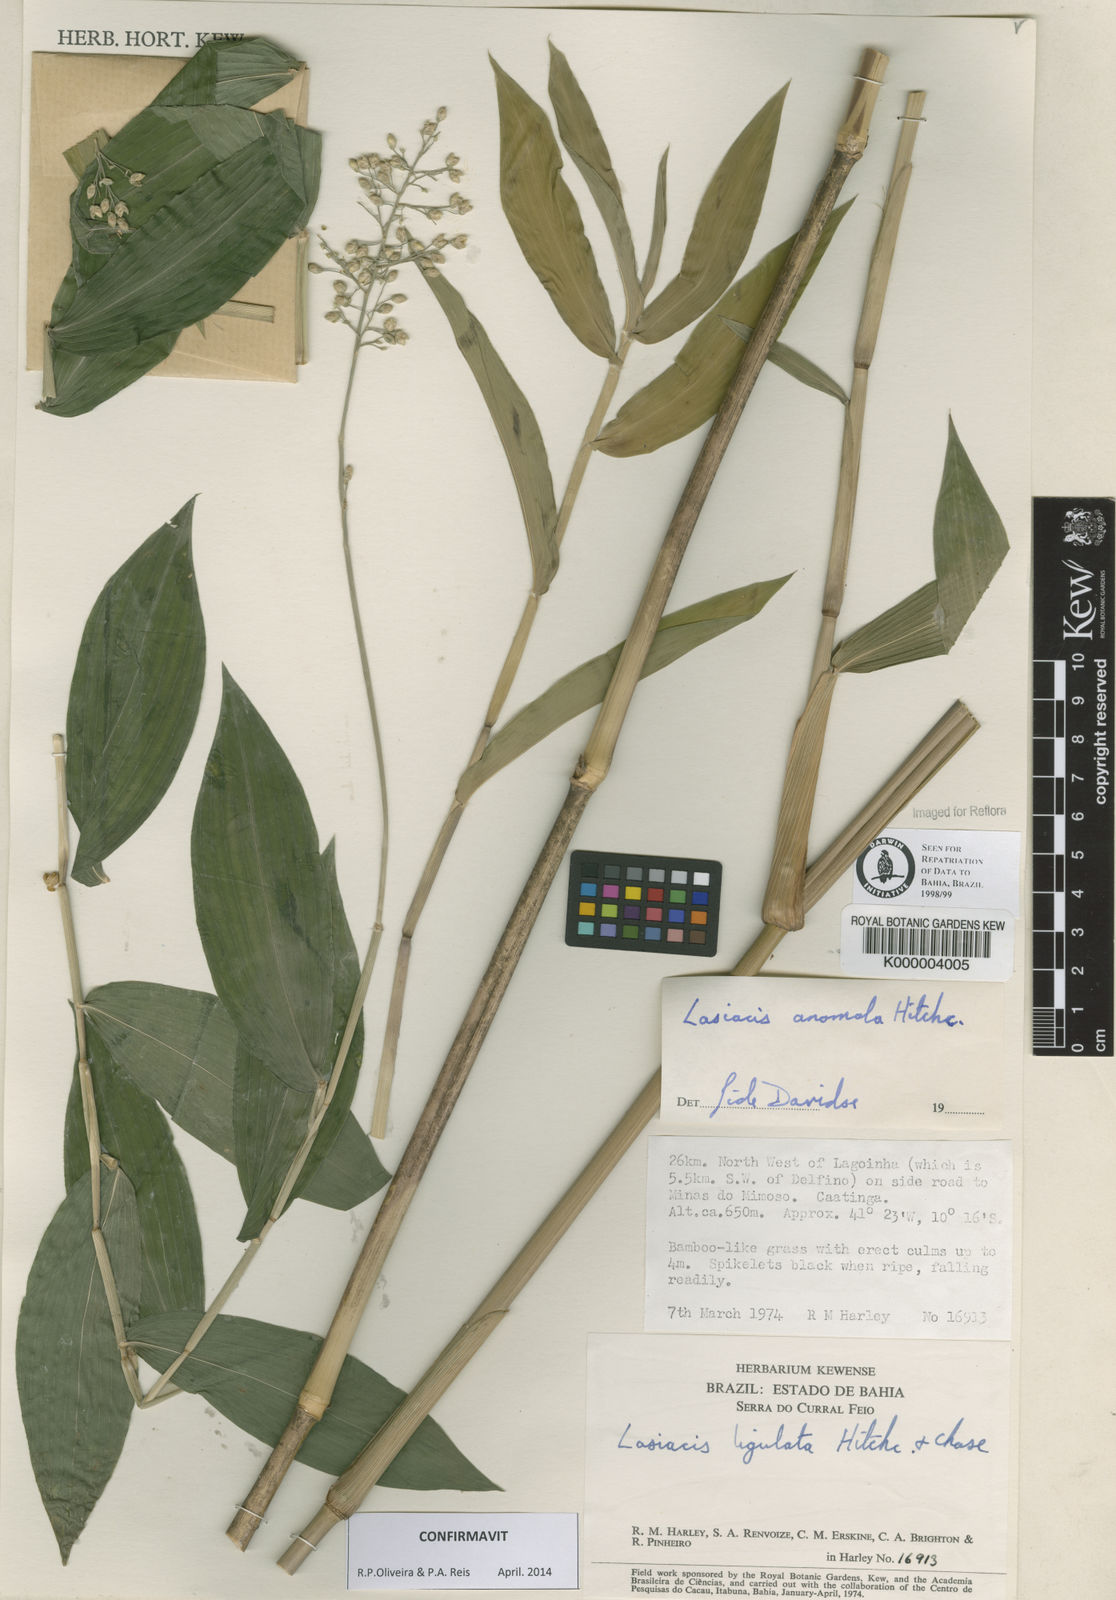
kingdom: Plantae
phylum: Tracheophyta
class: Liliopsida
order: Poales
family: Poaceae
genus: Lasiacis
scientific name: Lasiacis anomala
